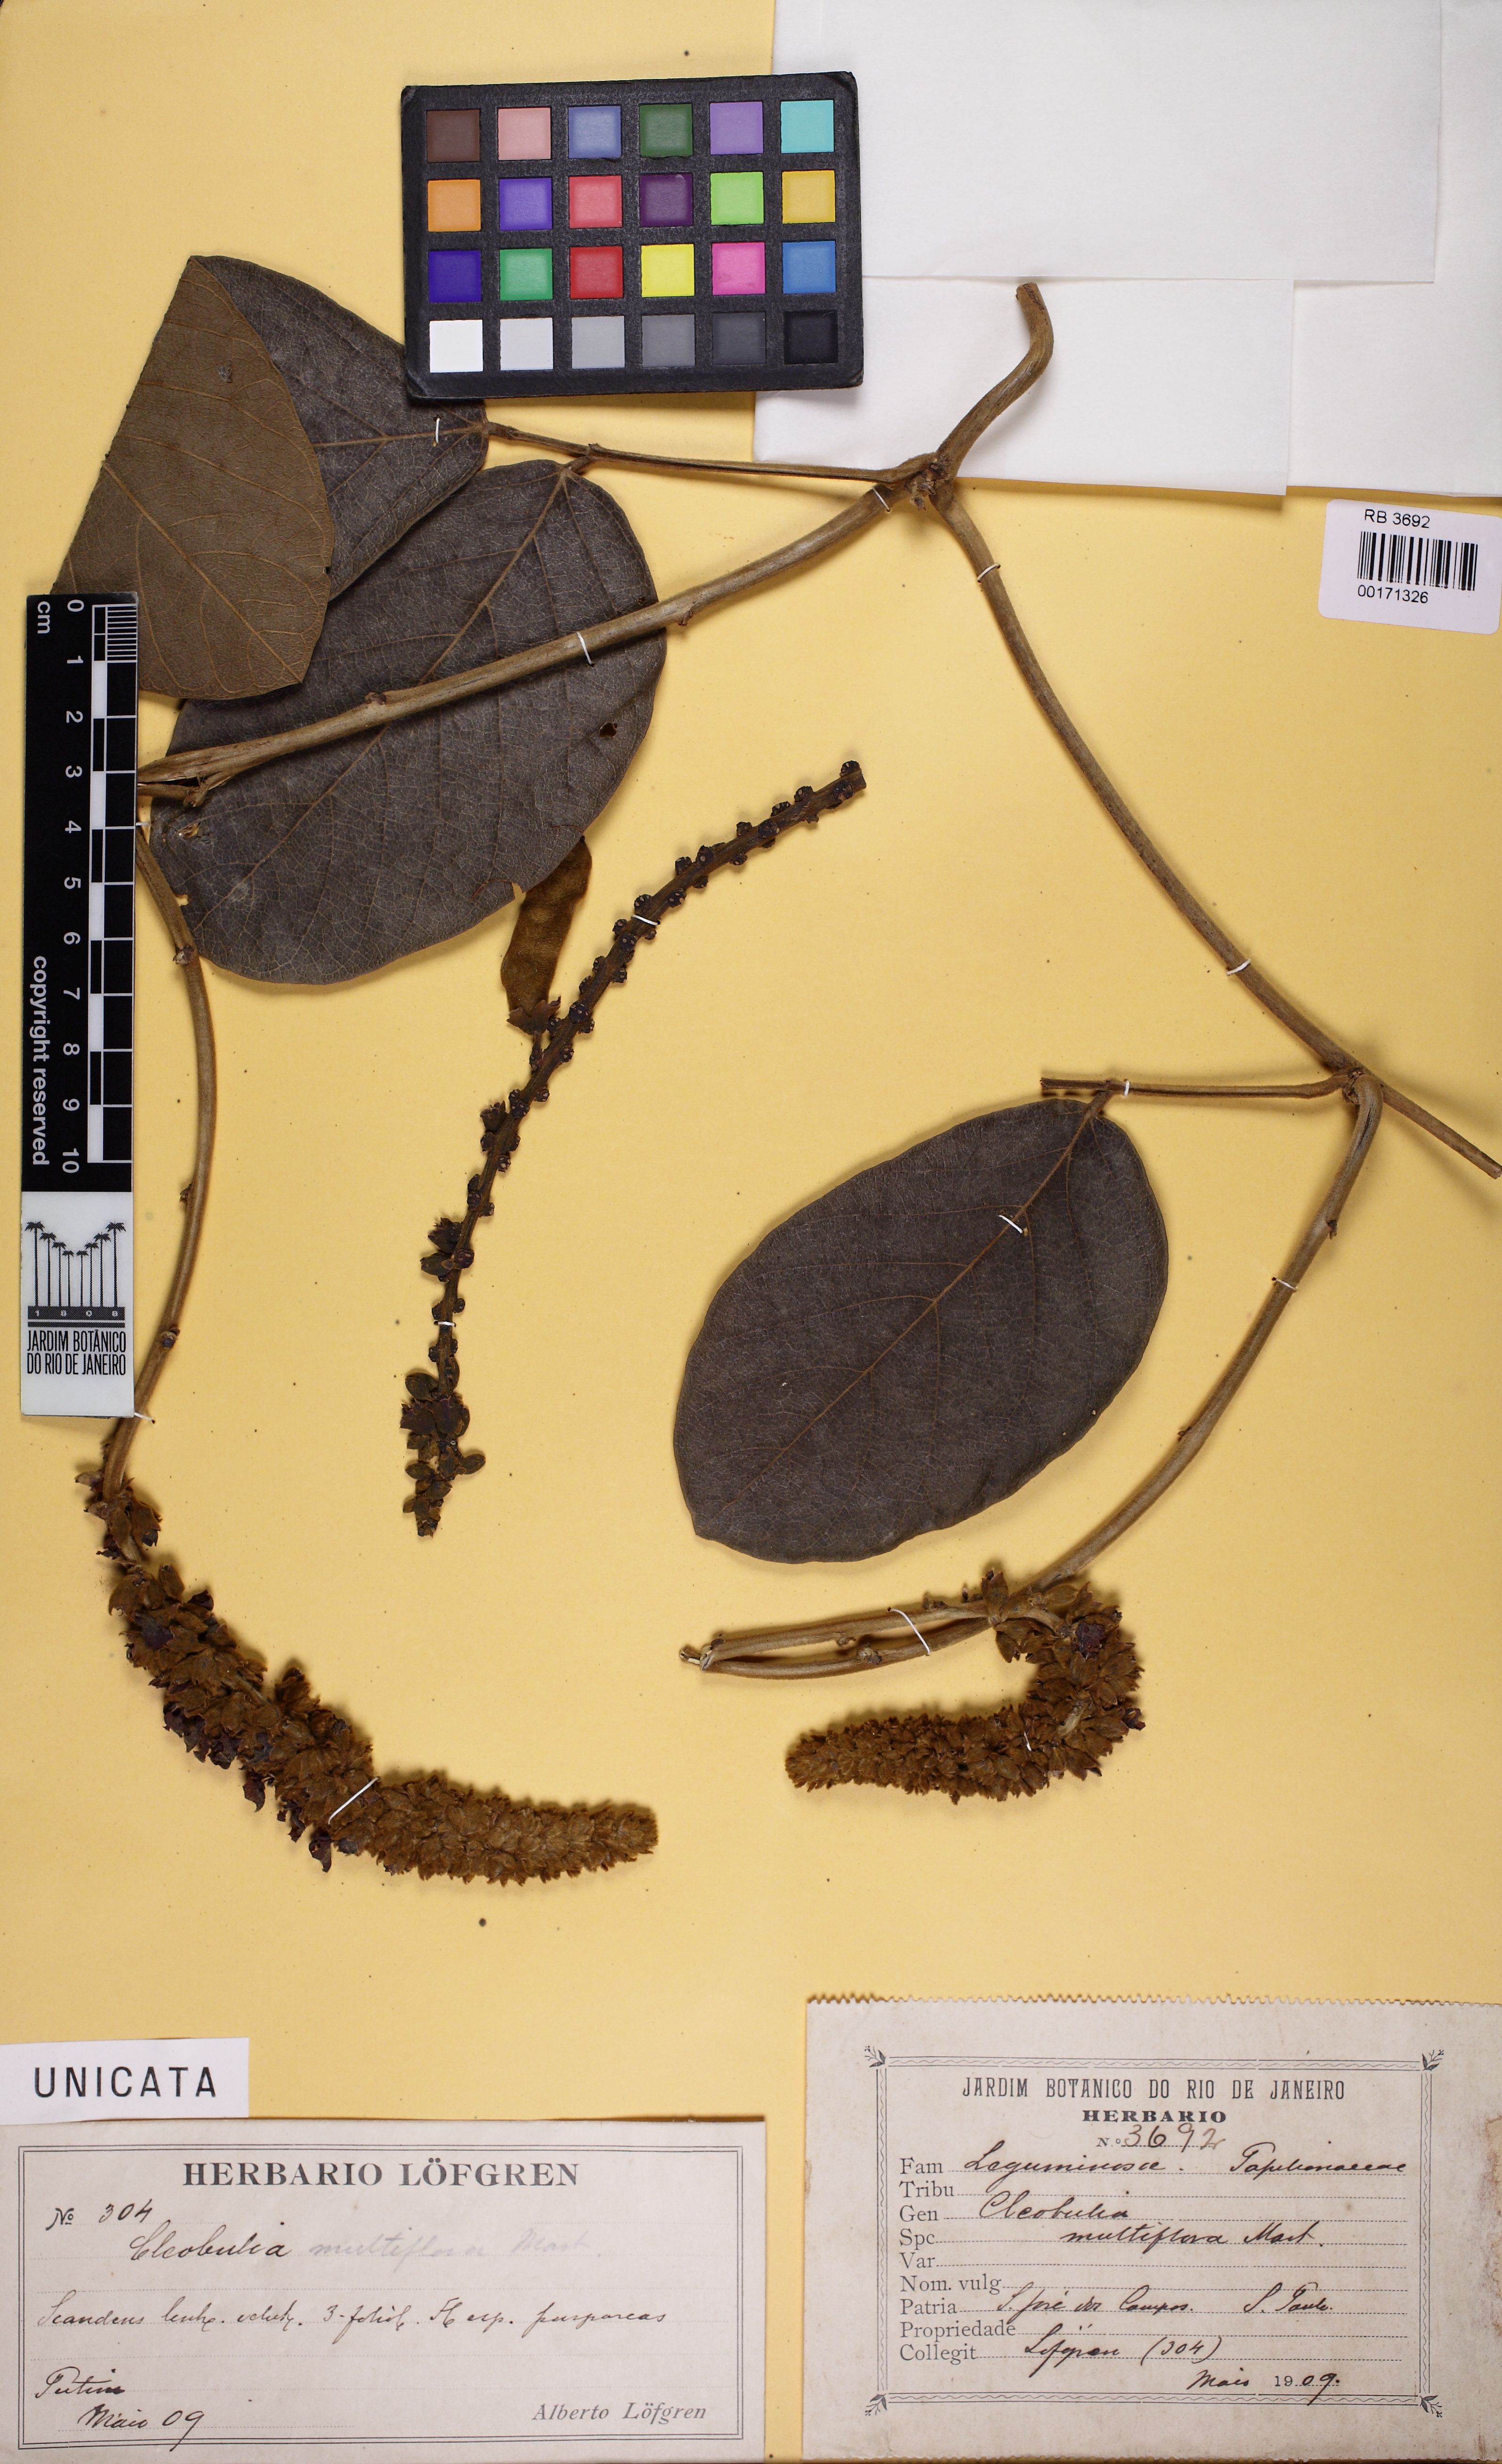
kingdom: Plantae
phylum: Tracheophyta
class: Magnoliopsida
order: Fabales
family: Fabaceae
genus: Cleobulia
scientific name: Cleobulia coccinea
